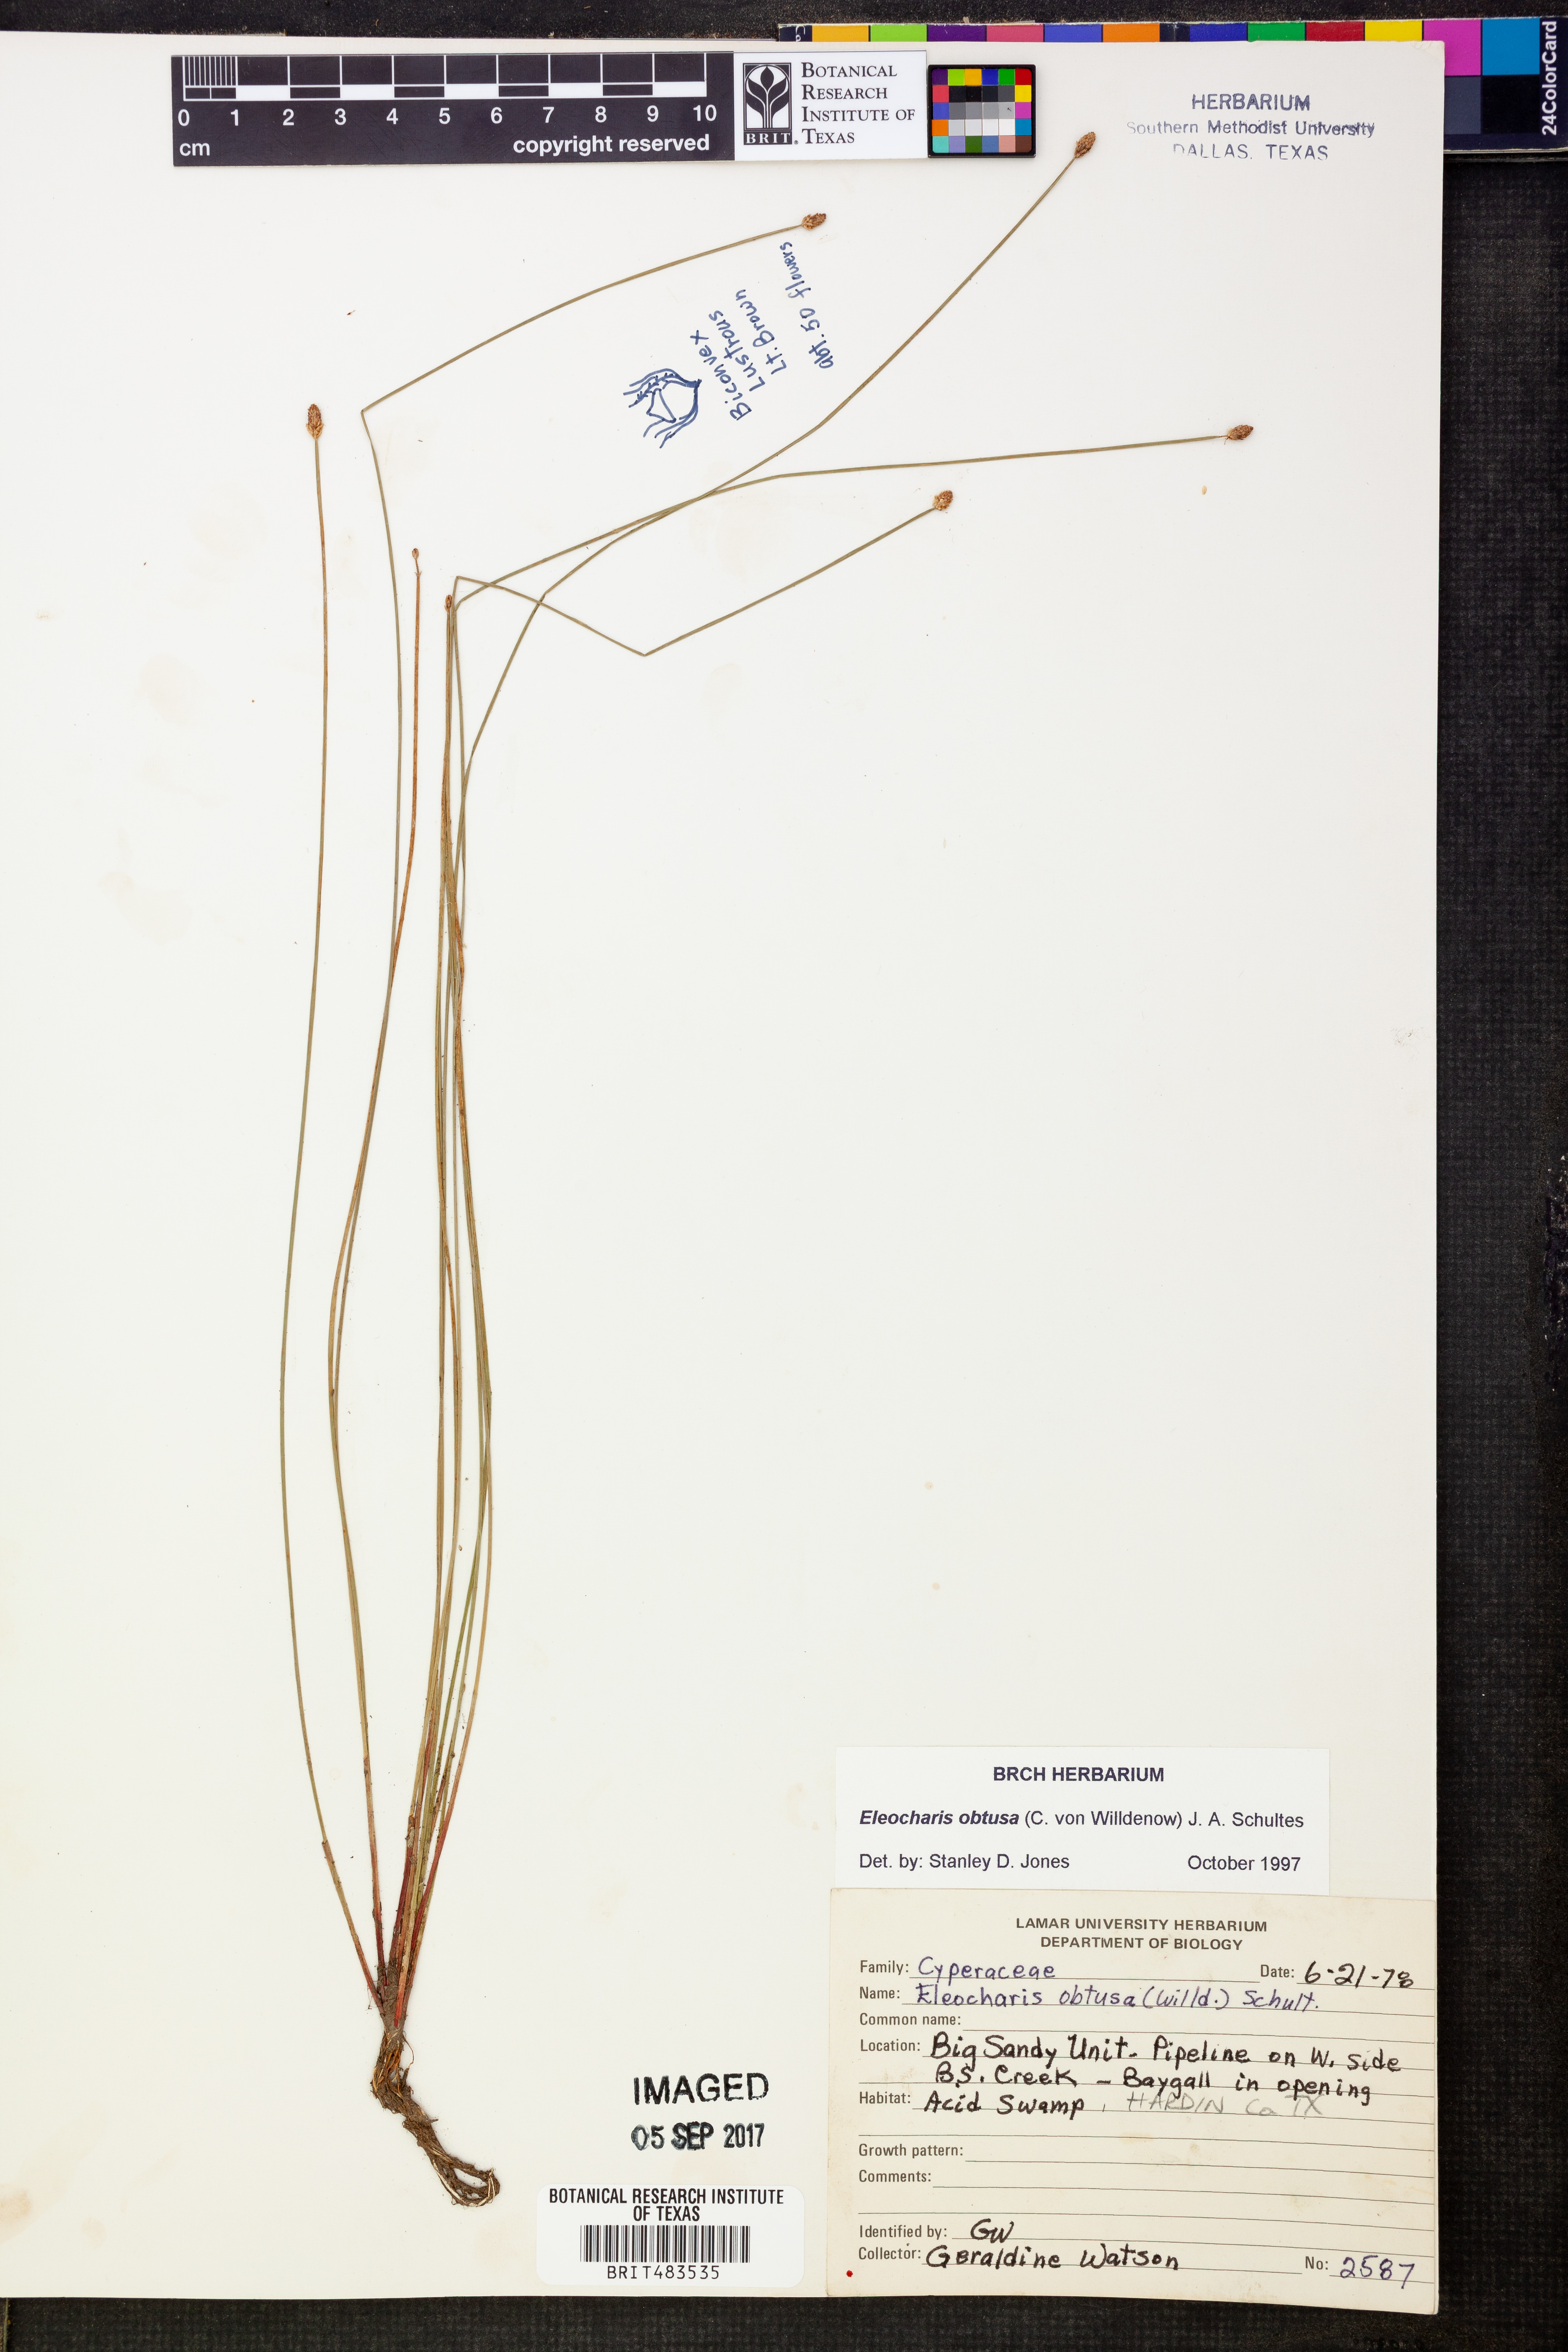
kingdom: Plantae
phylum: Tracheophyta
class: Liliopsida
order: Poales
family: Cyperaceae
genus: Eleocharis
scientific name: Eleocharis obtusa
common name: Blunt spikerush
